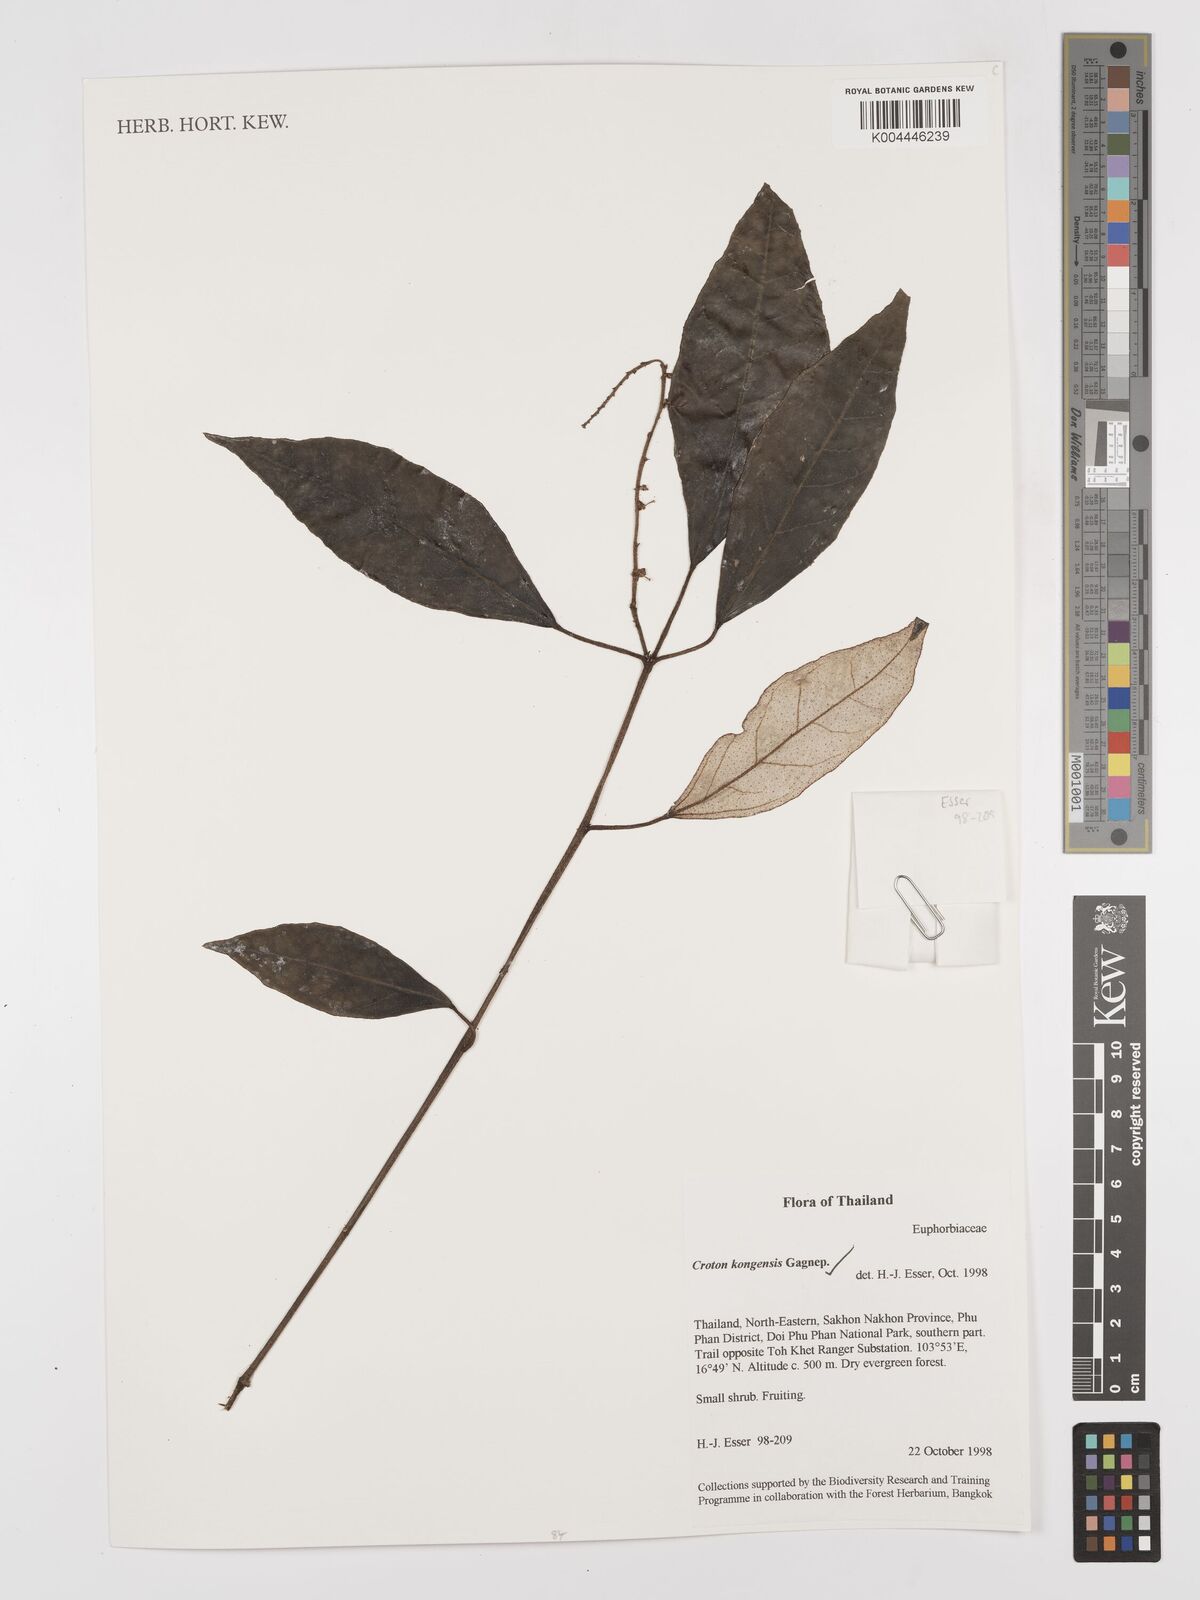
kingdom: Plantae
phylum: Tracheophyta
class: Magnoliopsida
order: Malpighiales
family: Euphorbiaceae
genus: Croton
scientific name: Croton kongensis
